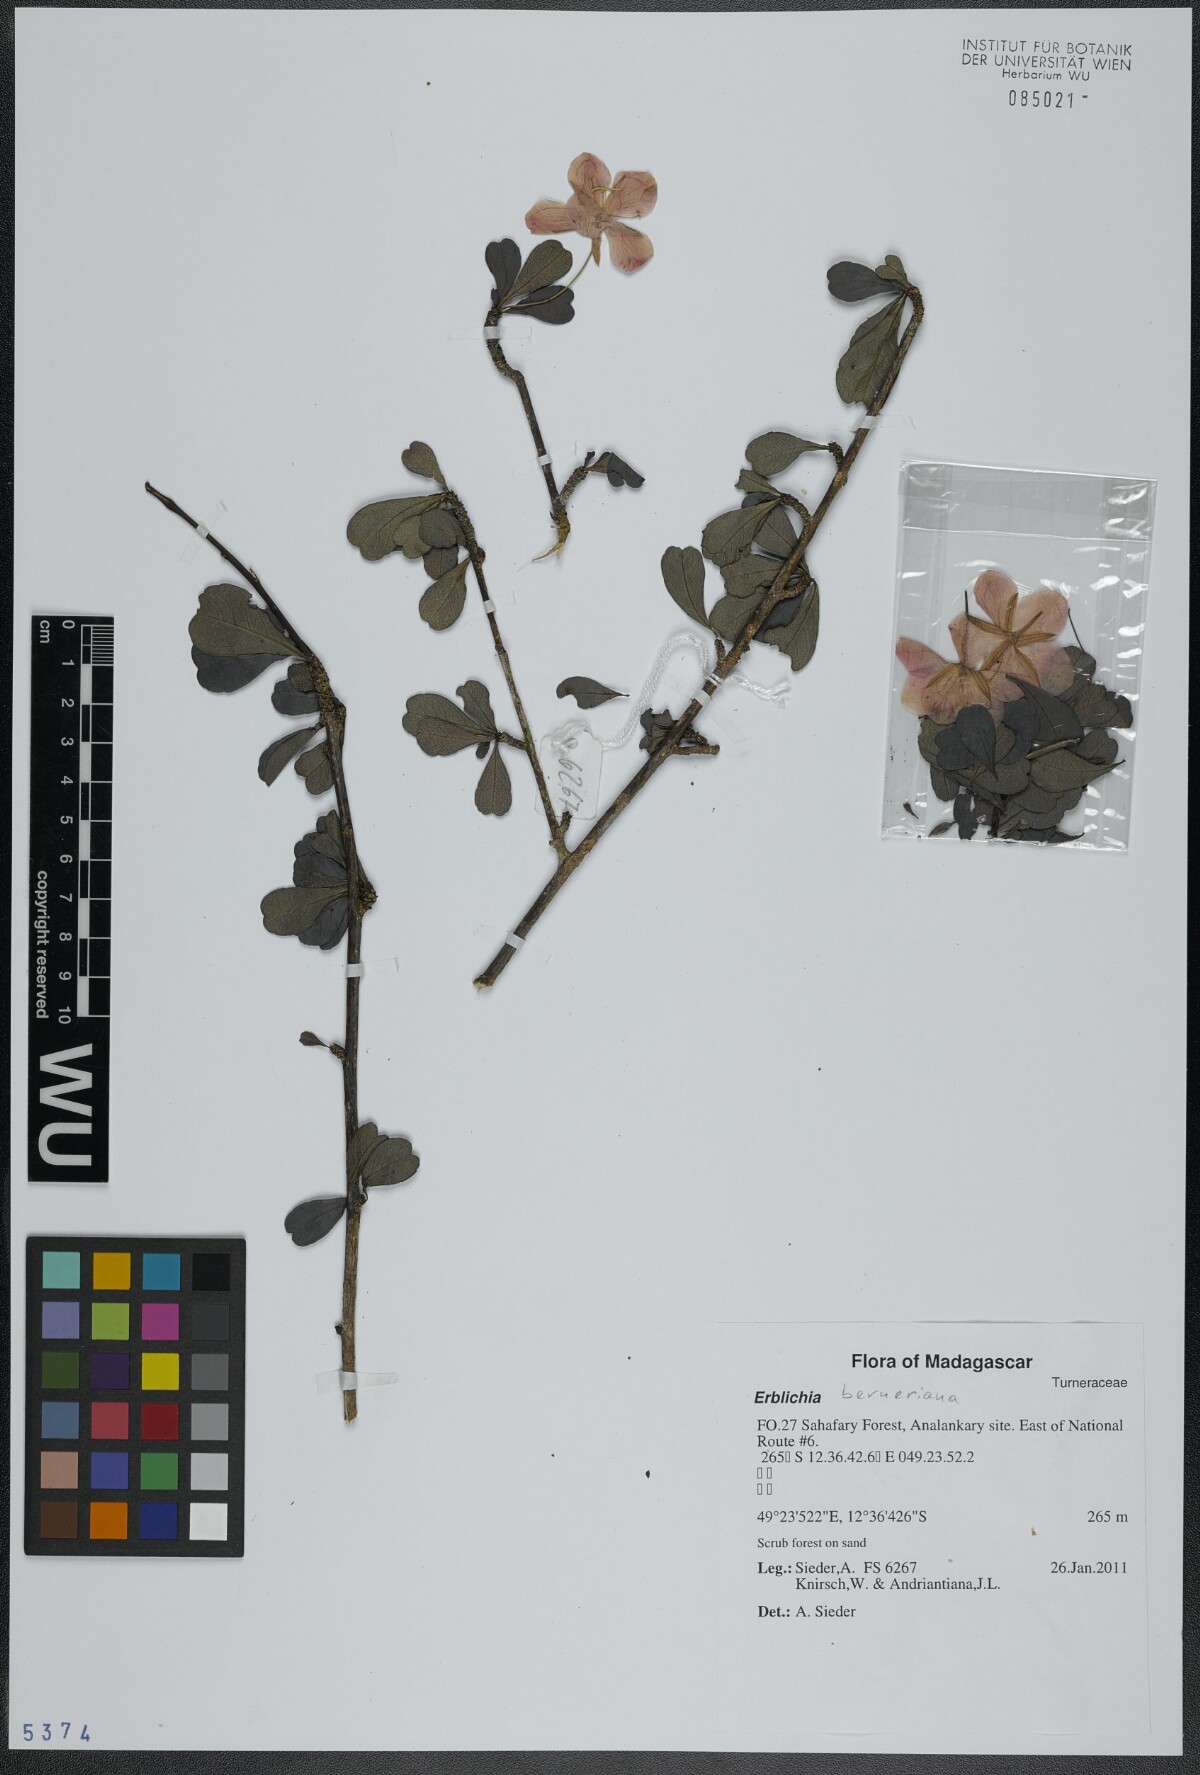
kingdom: Plantae
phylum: Tracheophyta
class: Magnoliopsida
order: Malpighiales
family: Turneraceae
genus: Arboa
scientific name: Arboa berneriana
